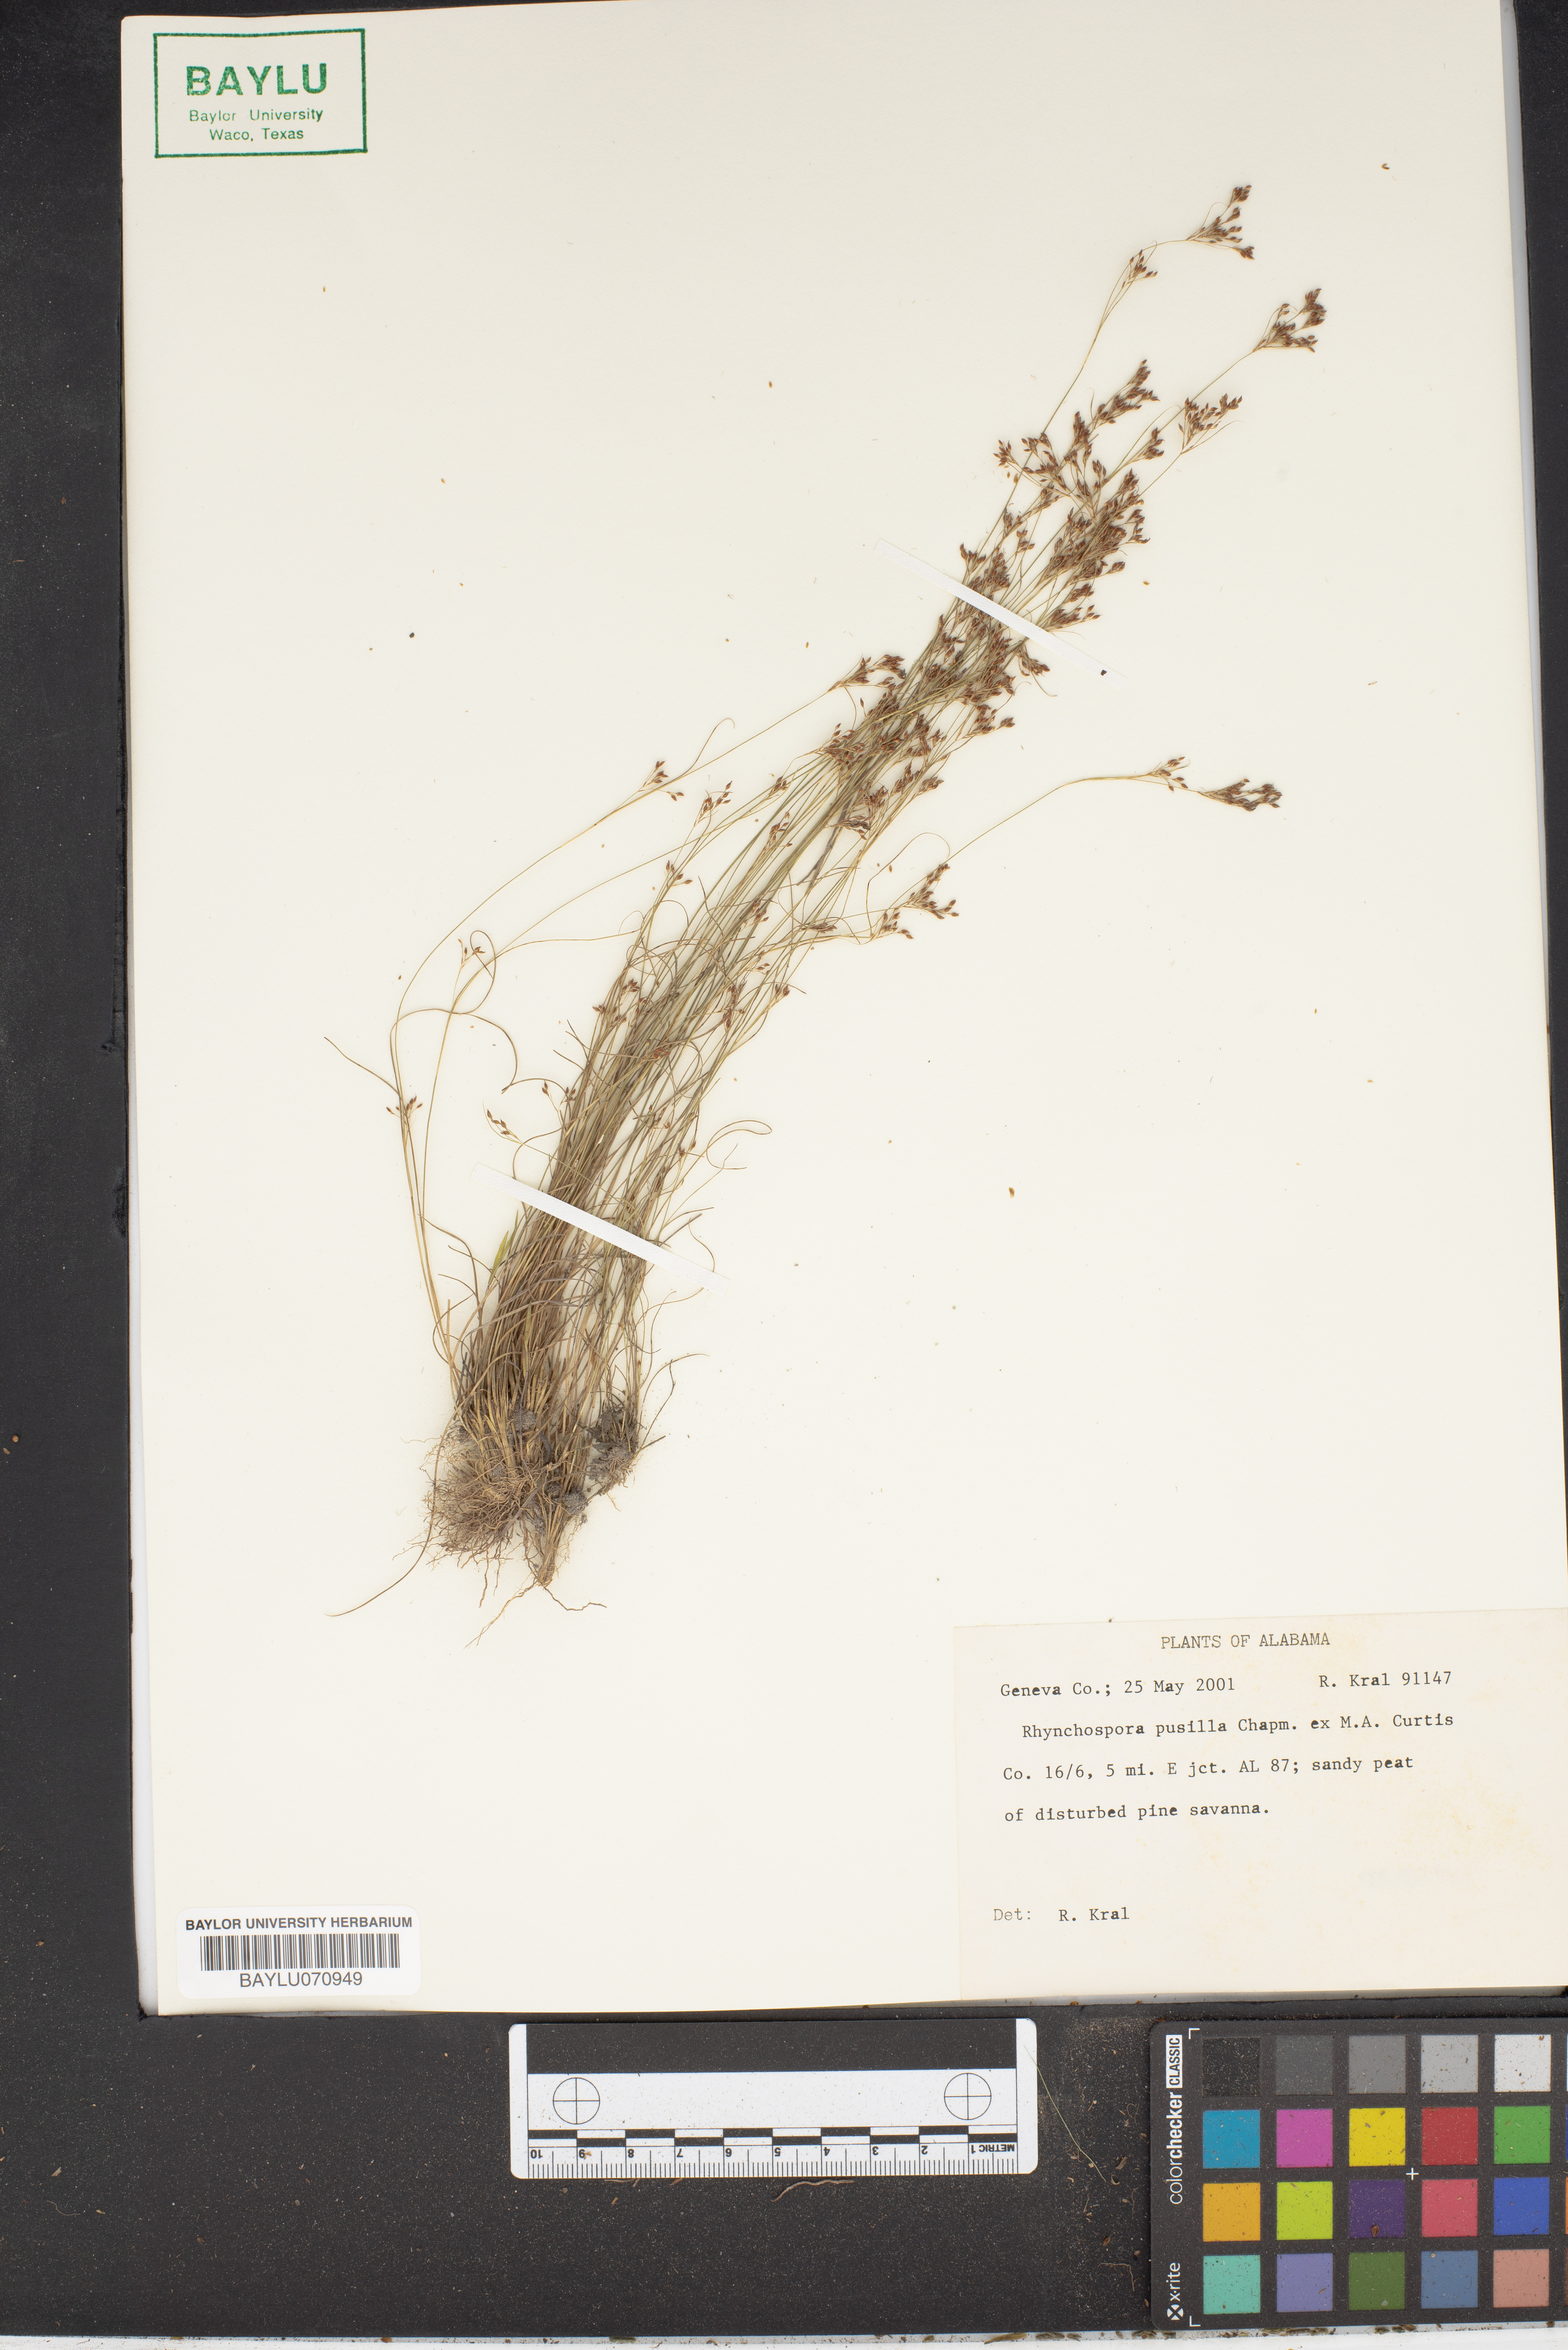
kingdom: Plantae
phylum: Tracheophyta
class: Liliopsida
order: Poales
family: Cyperaceae
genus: Rhynchospora
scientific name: Rhynchospora pusilla
